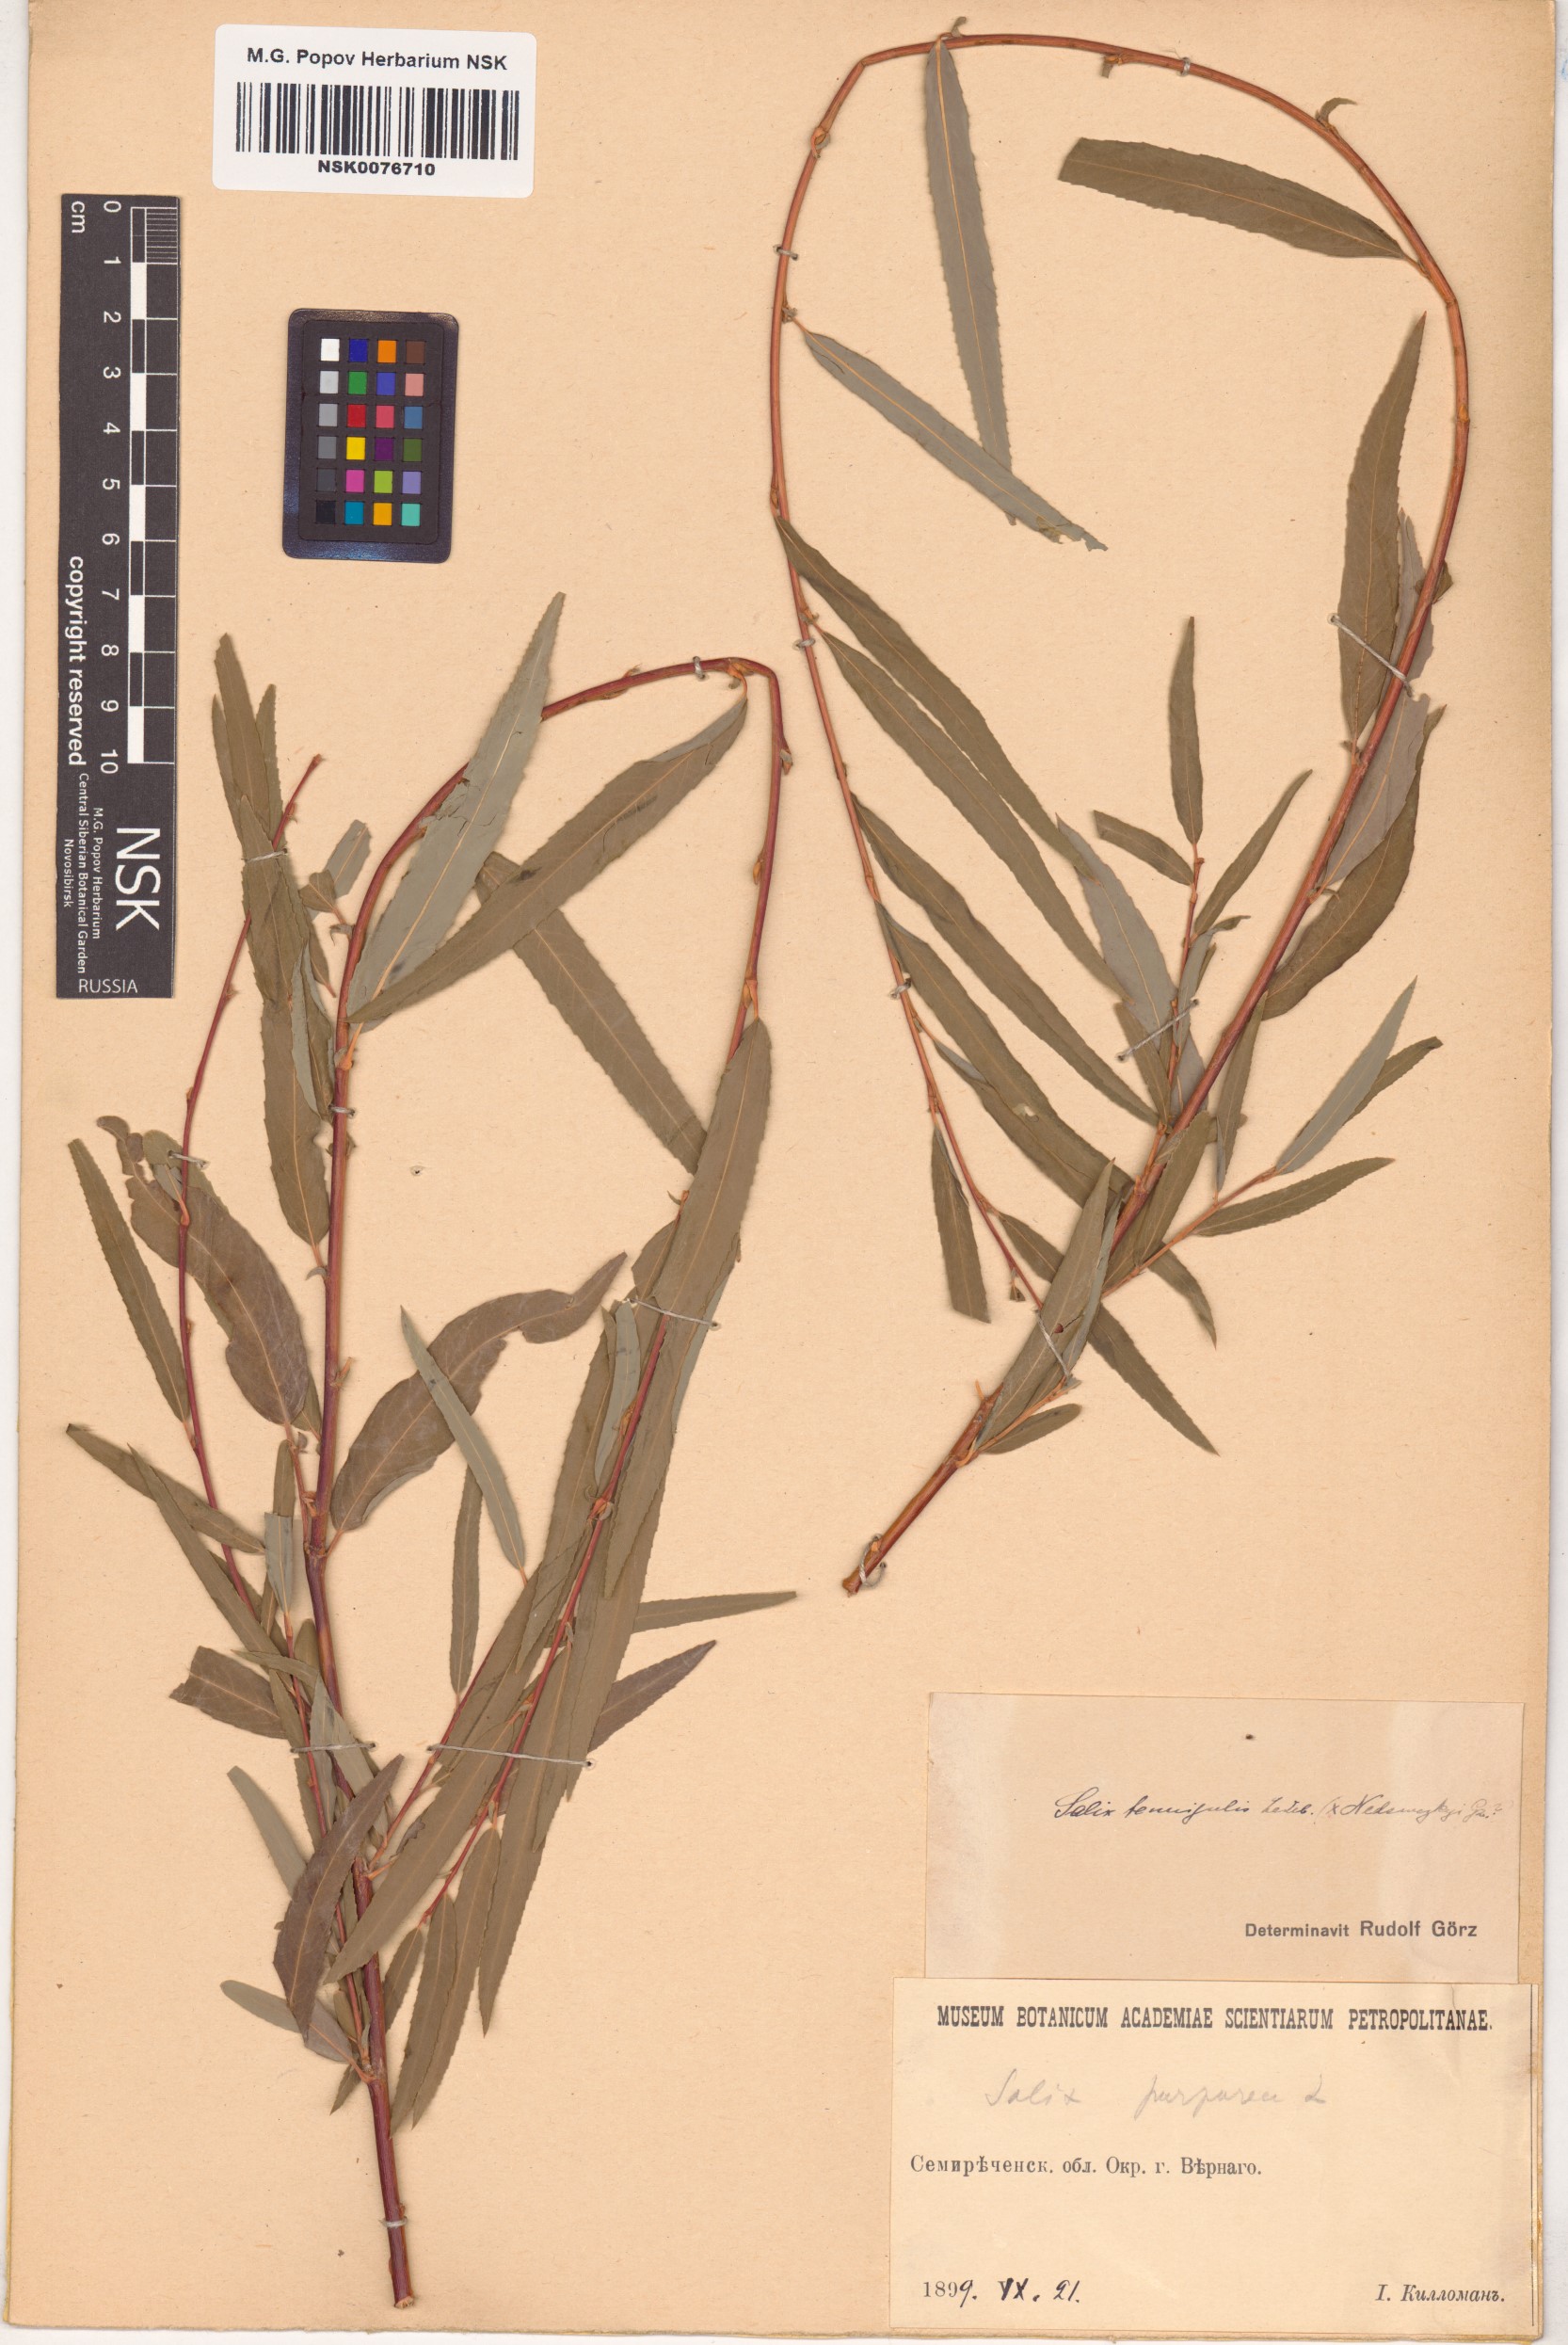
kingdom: Plantae
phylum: Tracheophyta
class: Magnoliopsida
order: Malpighiales
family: Salicaceae
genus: Salix
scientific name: Salix tenuijulis
